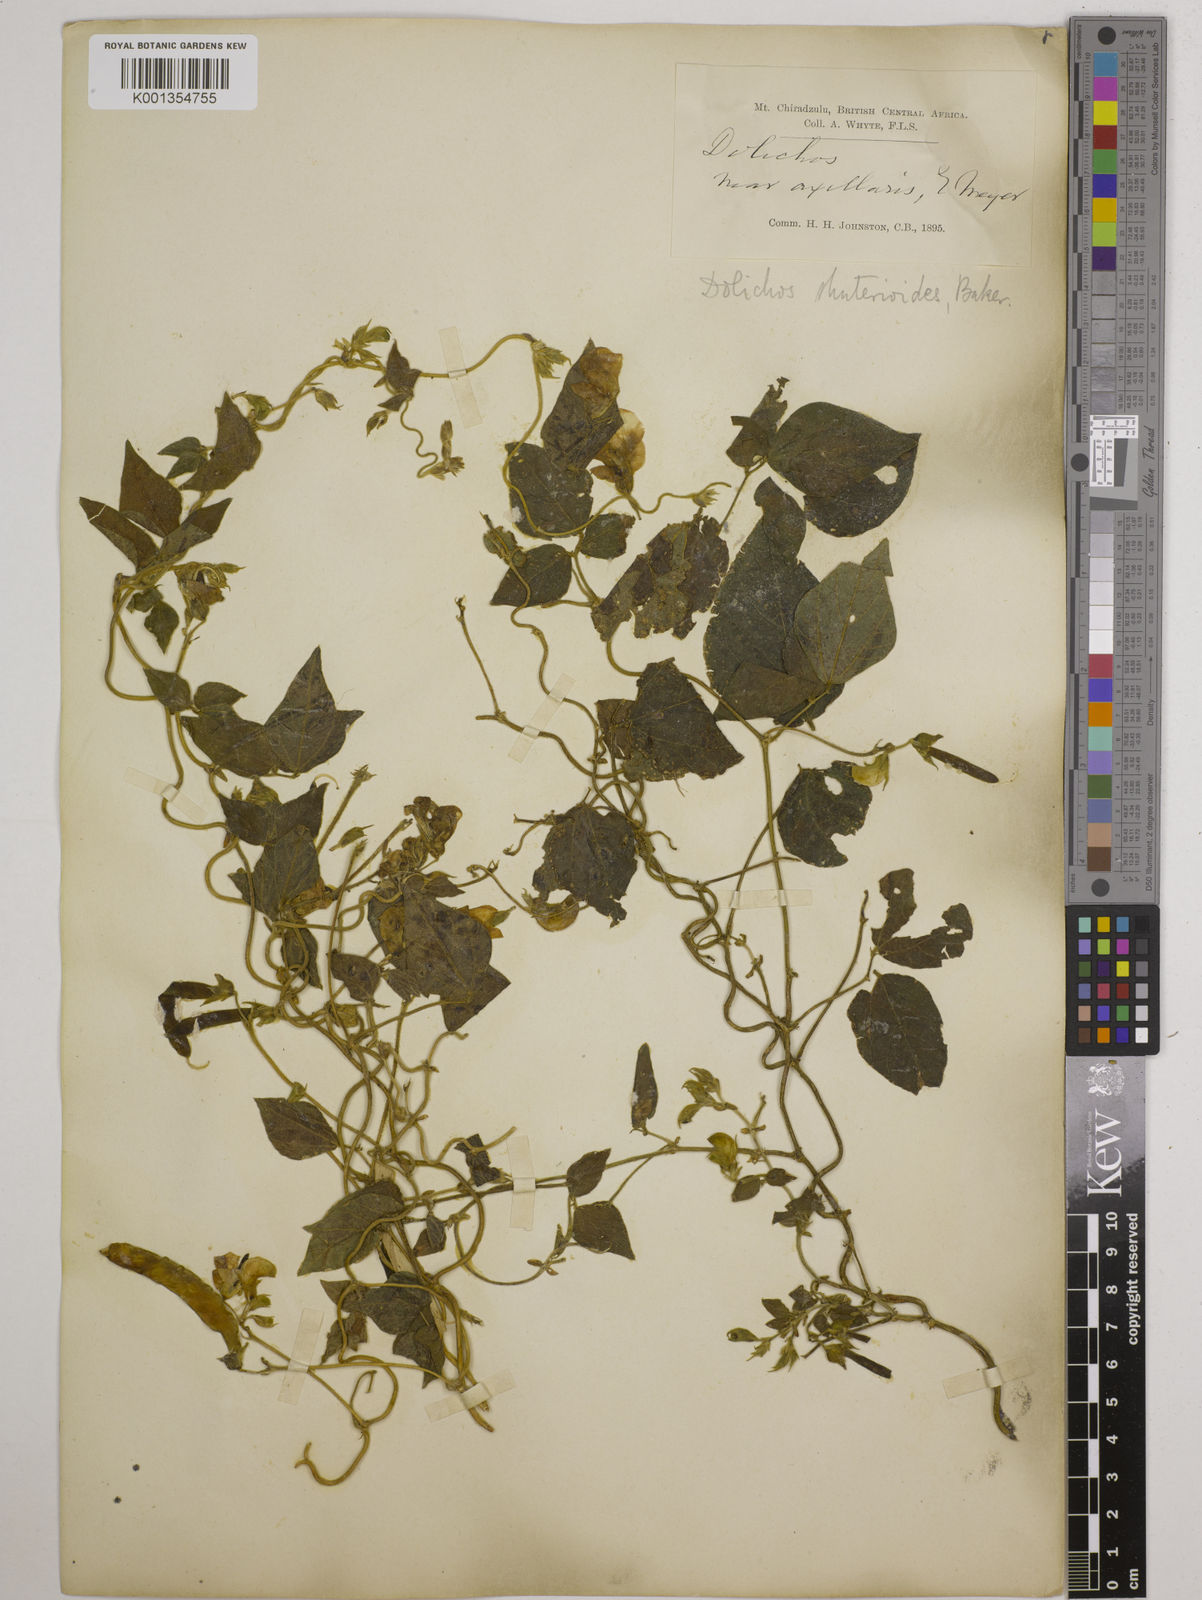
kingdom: Plantae
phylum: Tracheophyta
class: Magnoliopsida
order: Fabales
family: Fabaceae
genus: Dolichos
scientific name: Dolichos
